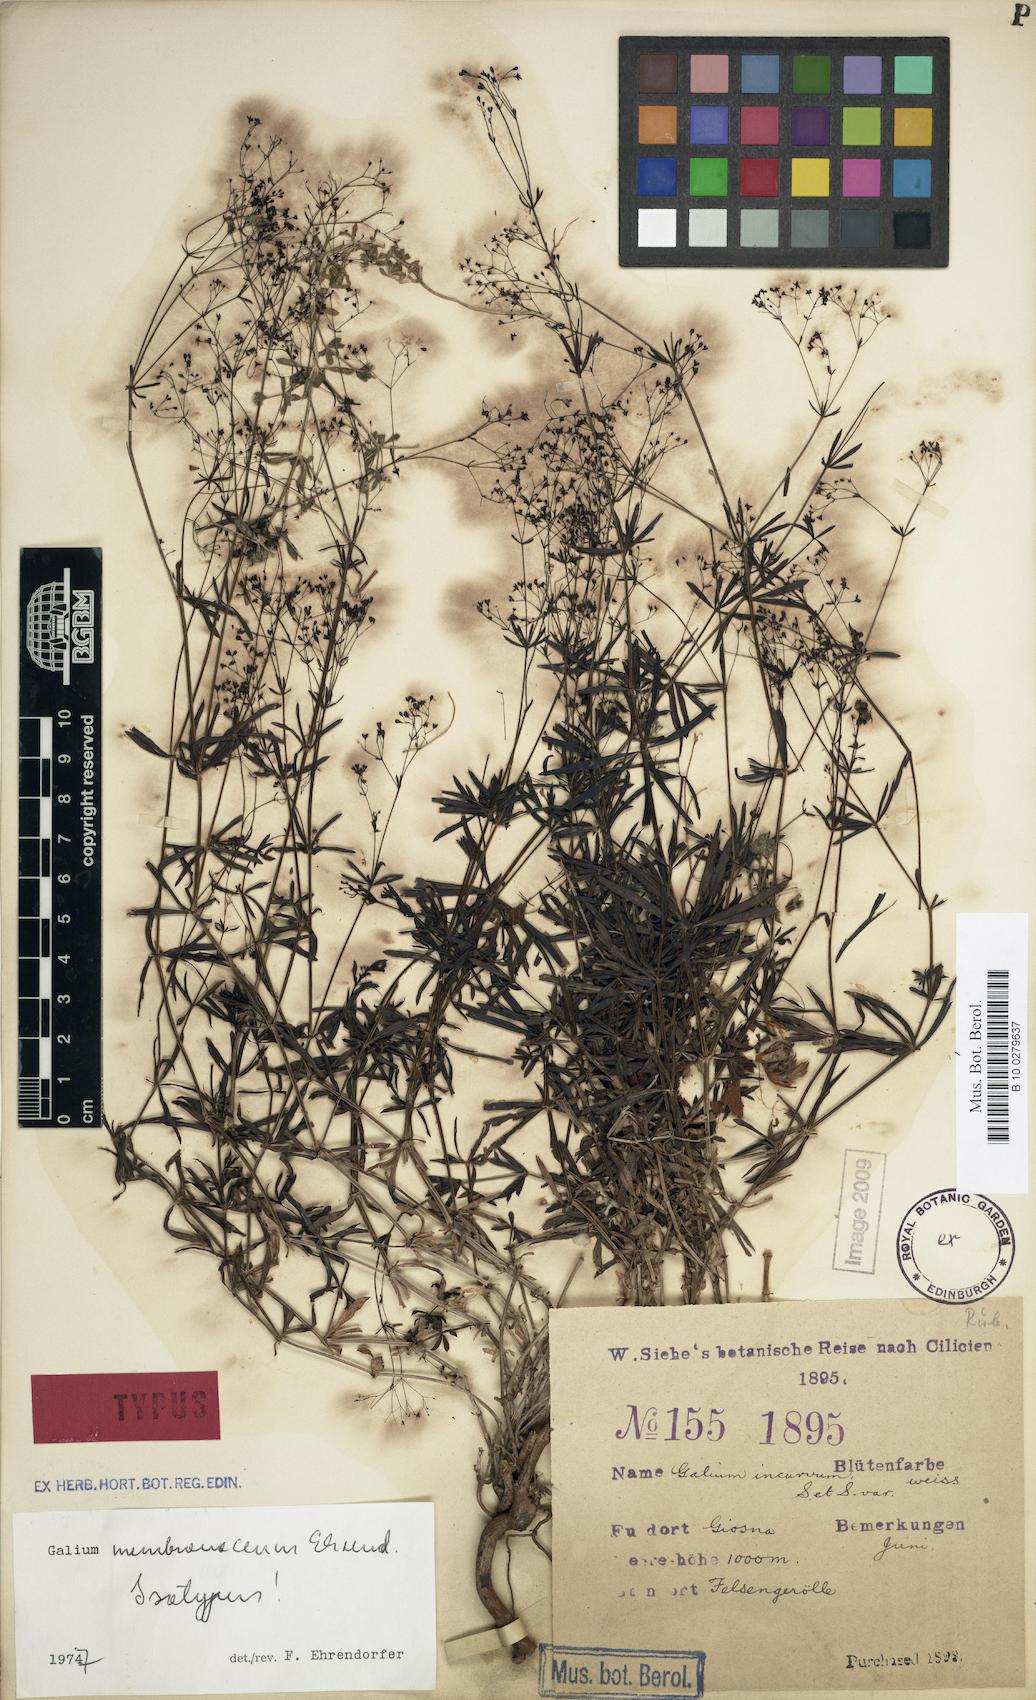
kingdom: Plantae
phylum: Tracheophyta
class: Magnoliopsida
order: Gentianales
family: Rubiaceae
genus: Galium
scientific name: Galium membranaceum
